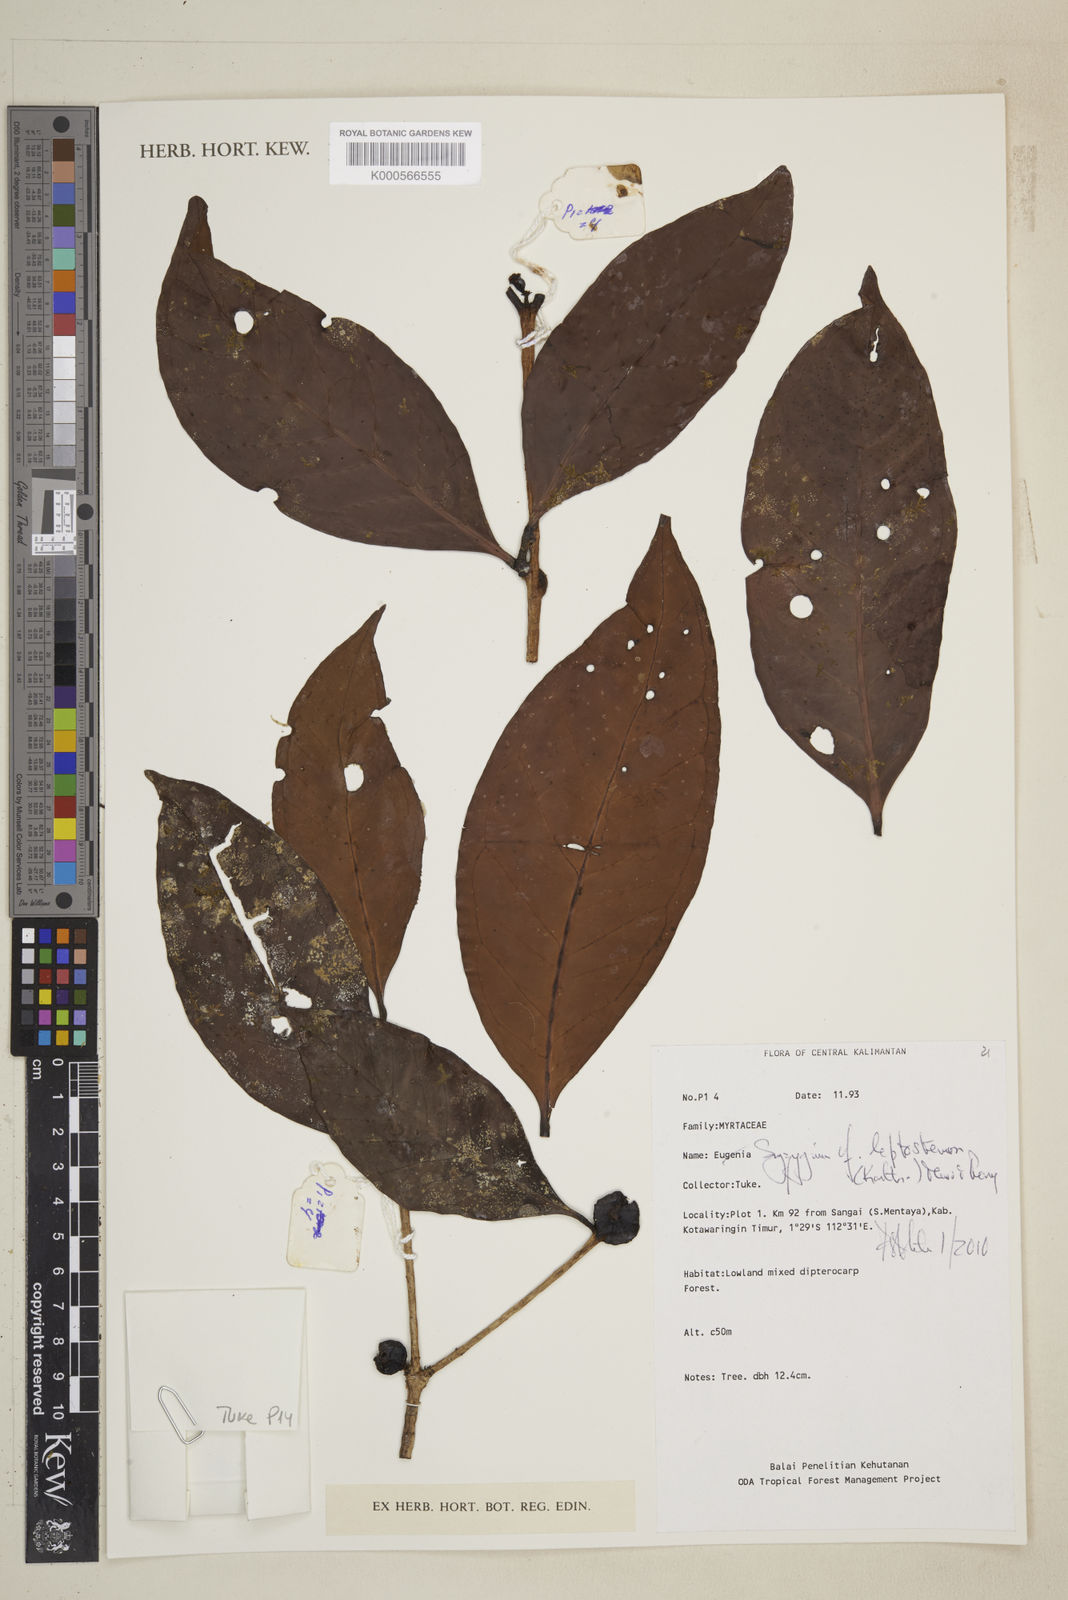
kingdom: Plantae
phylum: Tracheophyta
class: Magnoliopsida
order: Myrtales
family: Myrtaceae
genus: Syzygium
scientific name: Syzygium urceolatum
